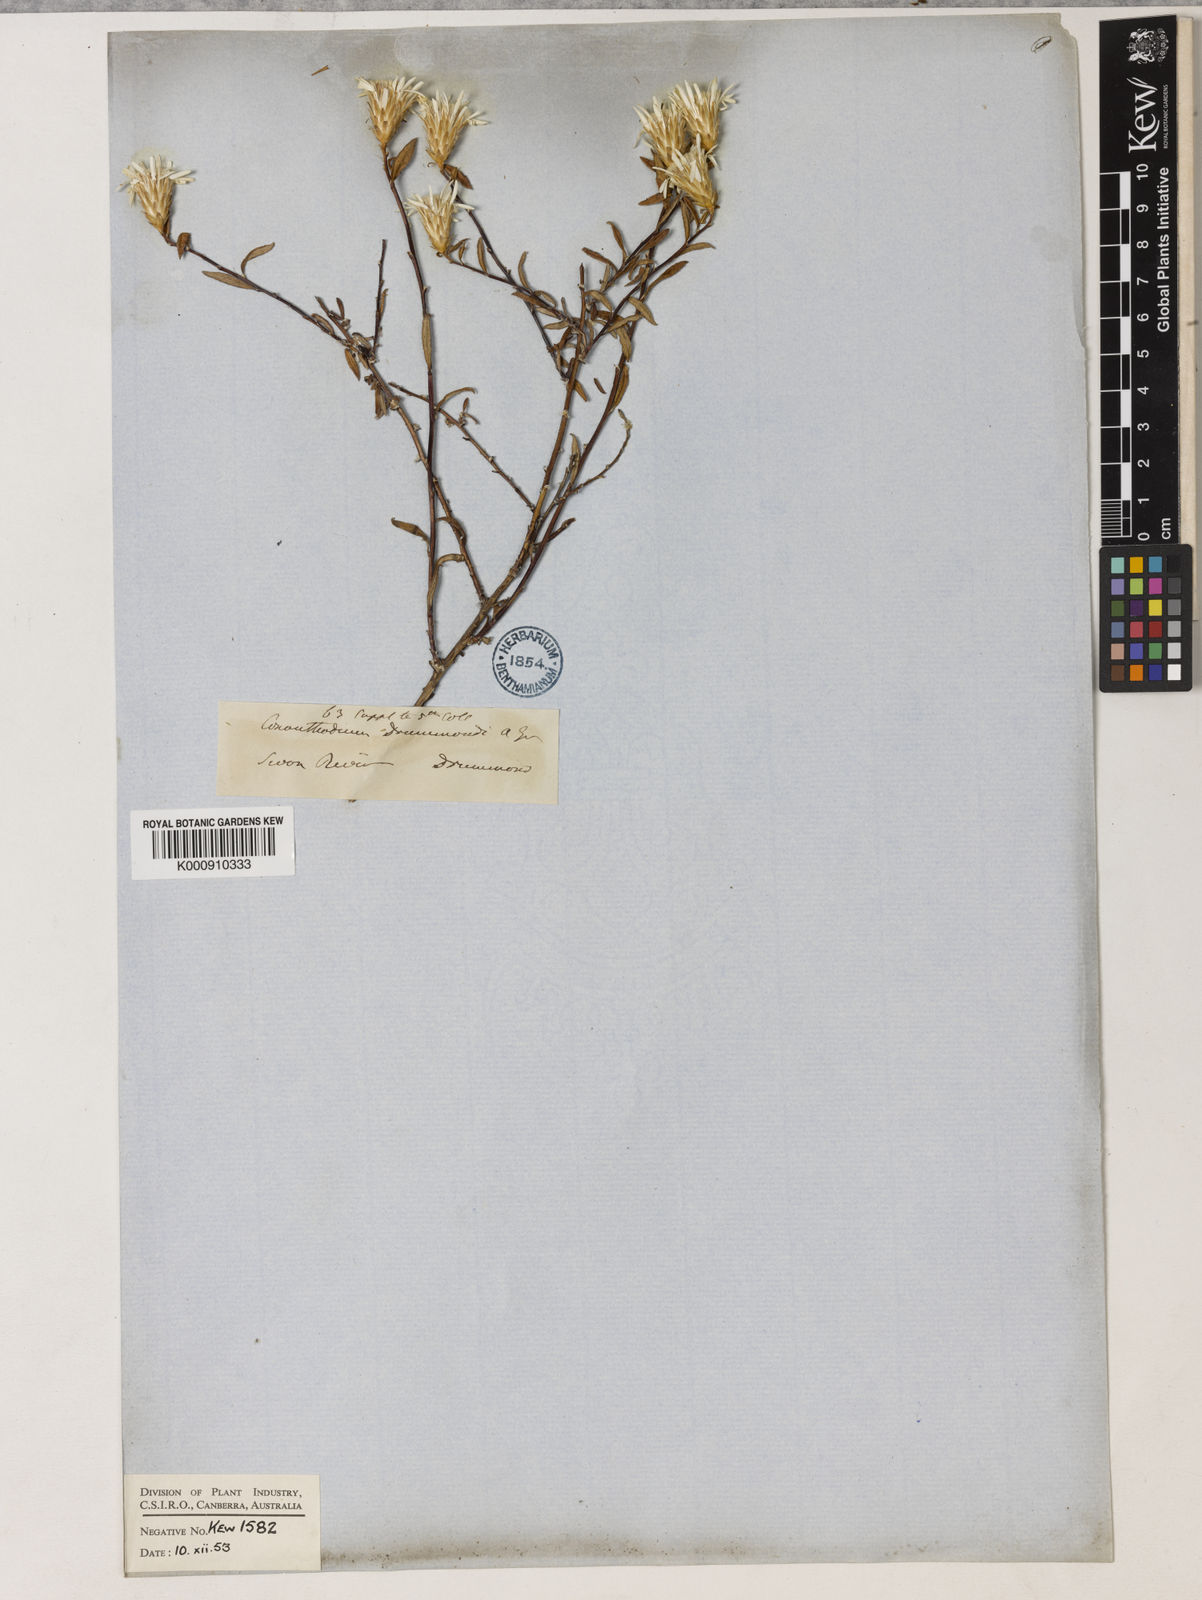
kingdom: Plantae
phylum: Tracheophyta
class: Magnoliopsida
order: Asterales
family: Asteraceae
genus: Argyroglottis
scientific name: Argyroglottis turbinata
